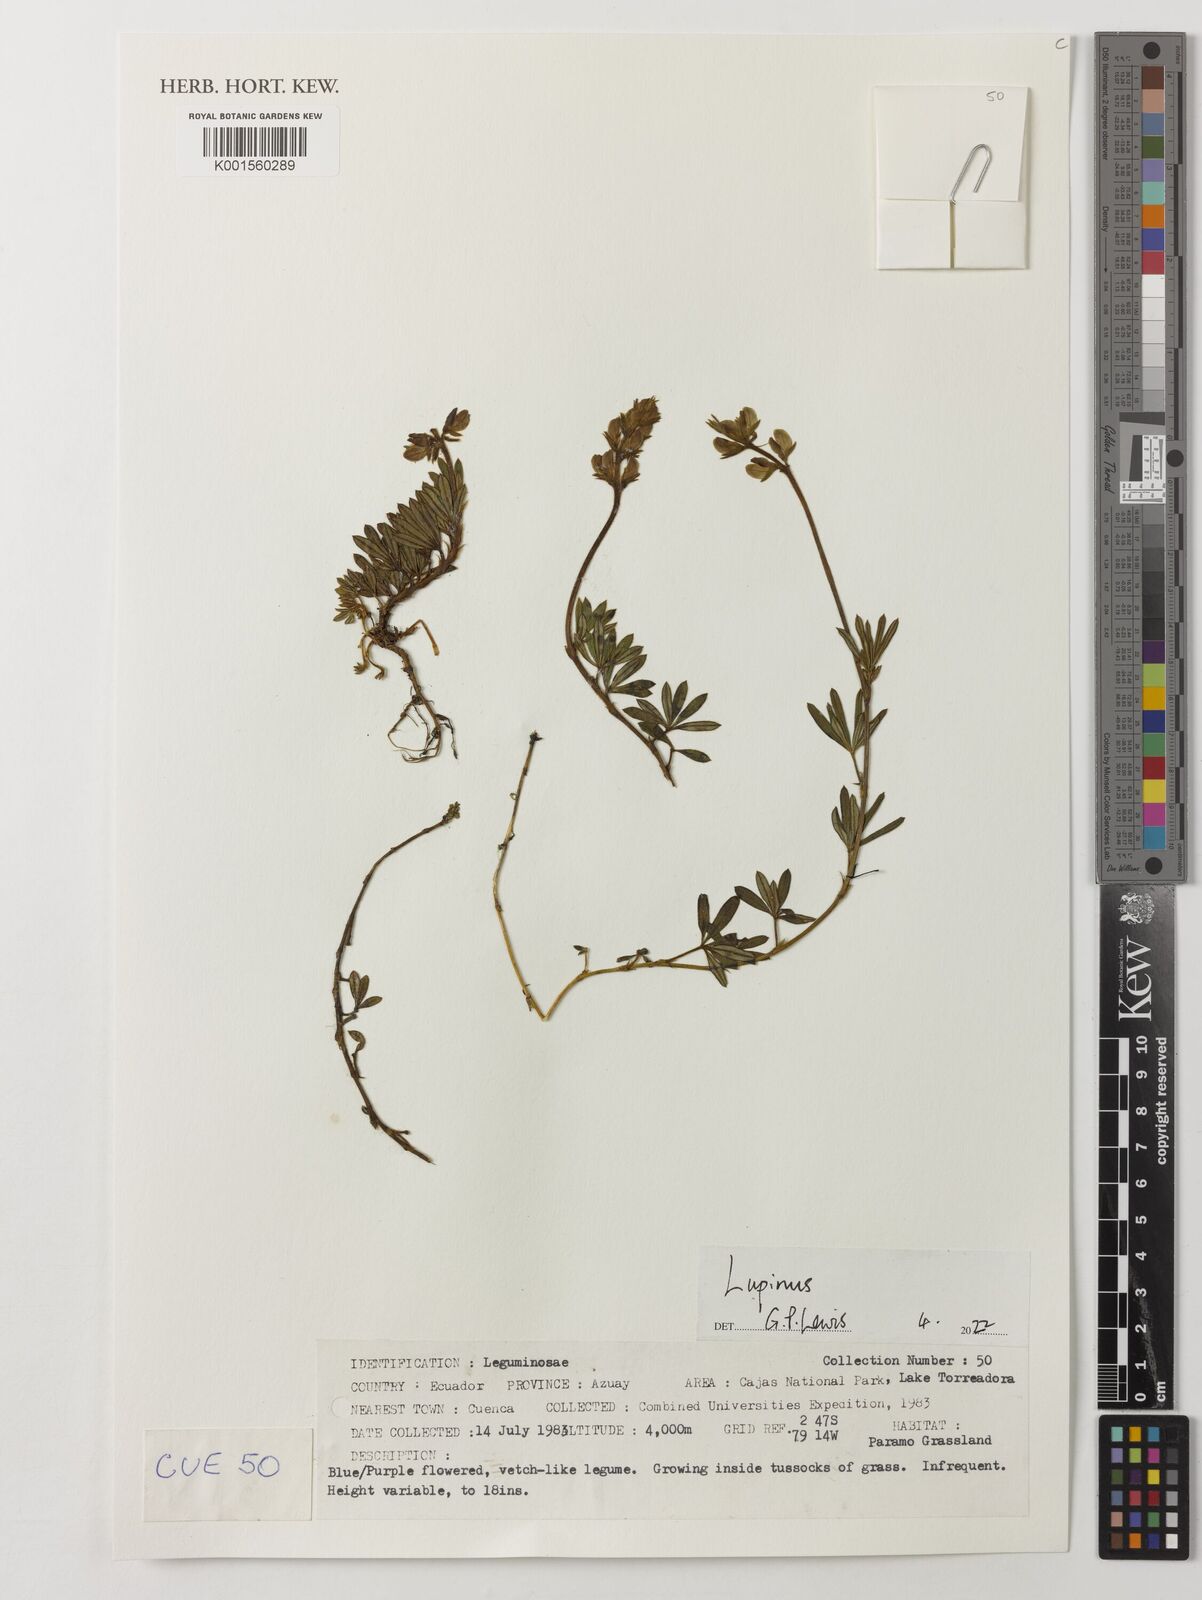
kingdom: Plantae
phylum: Tracheophyta
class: Magnoliopsida
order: Fabales
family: Fabaceae
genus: Lupinus
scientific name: Lupinus
